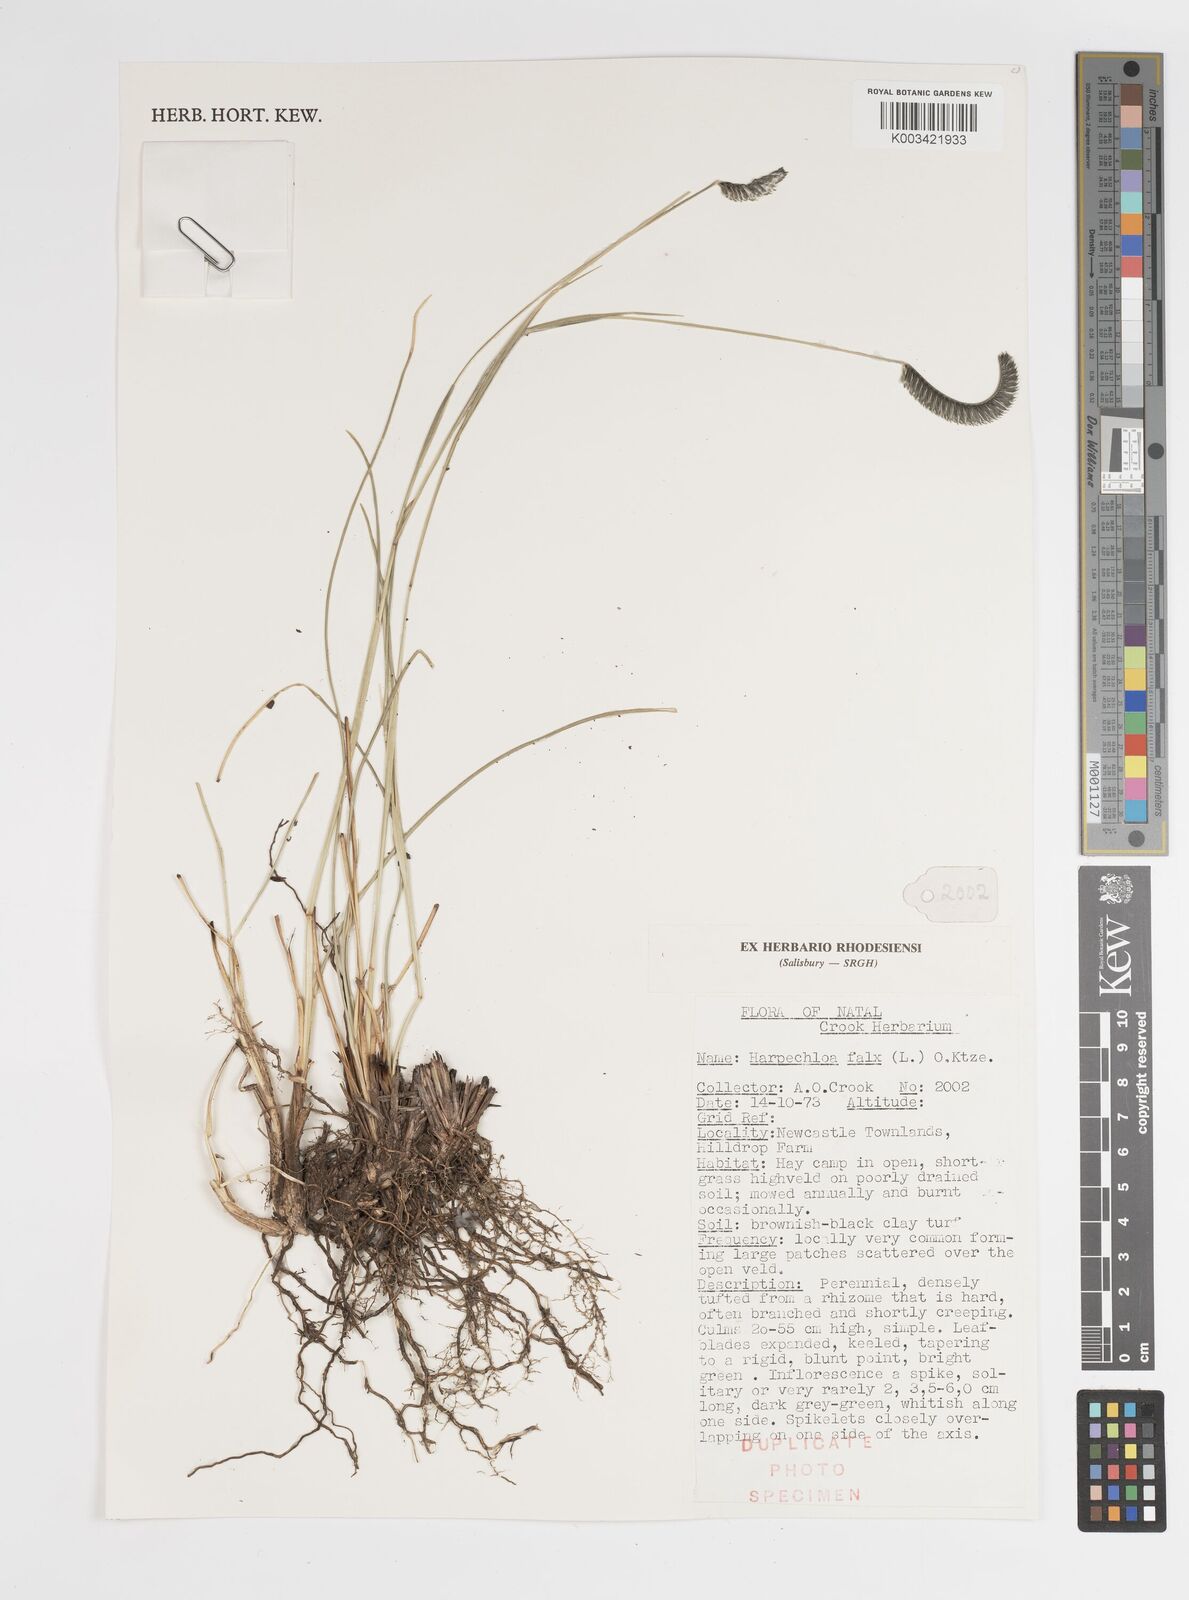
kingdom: Plantae
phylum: Tracheophyta
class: Liliopsida
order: Poales
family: Poaceae
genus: Harpochloa
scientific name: Harpochloa falx
